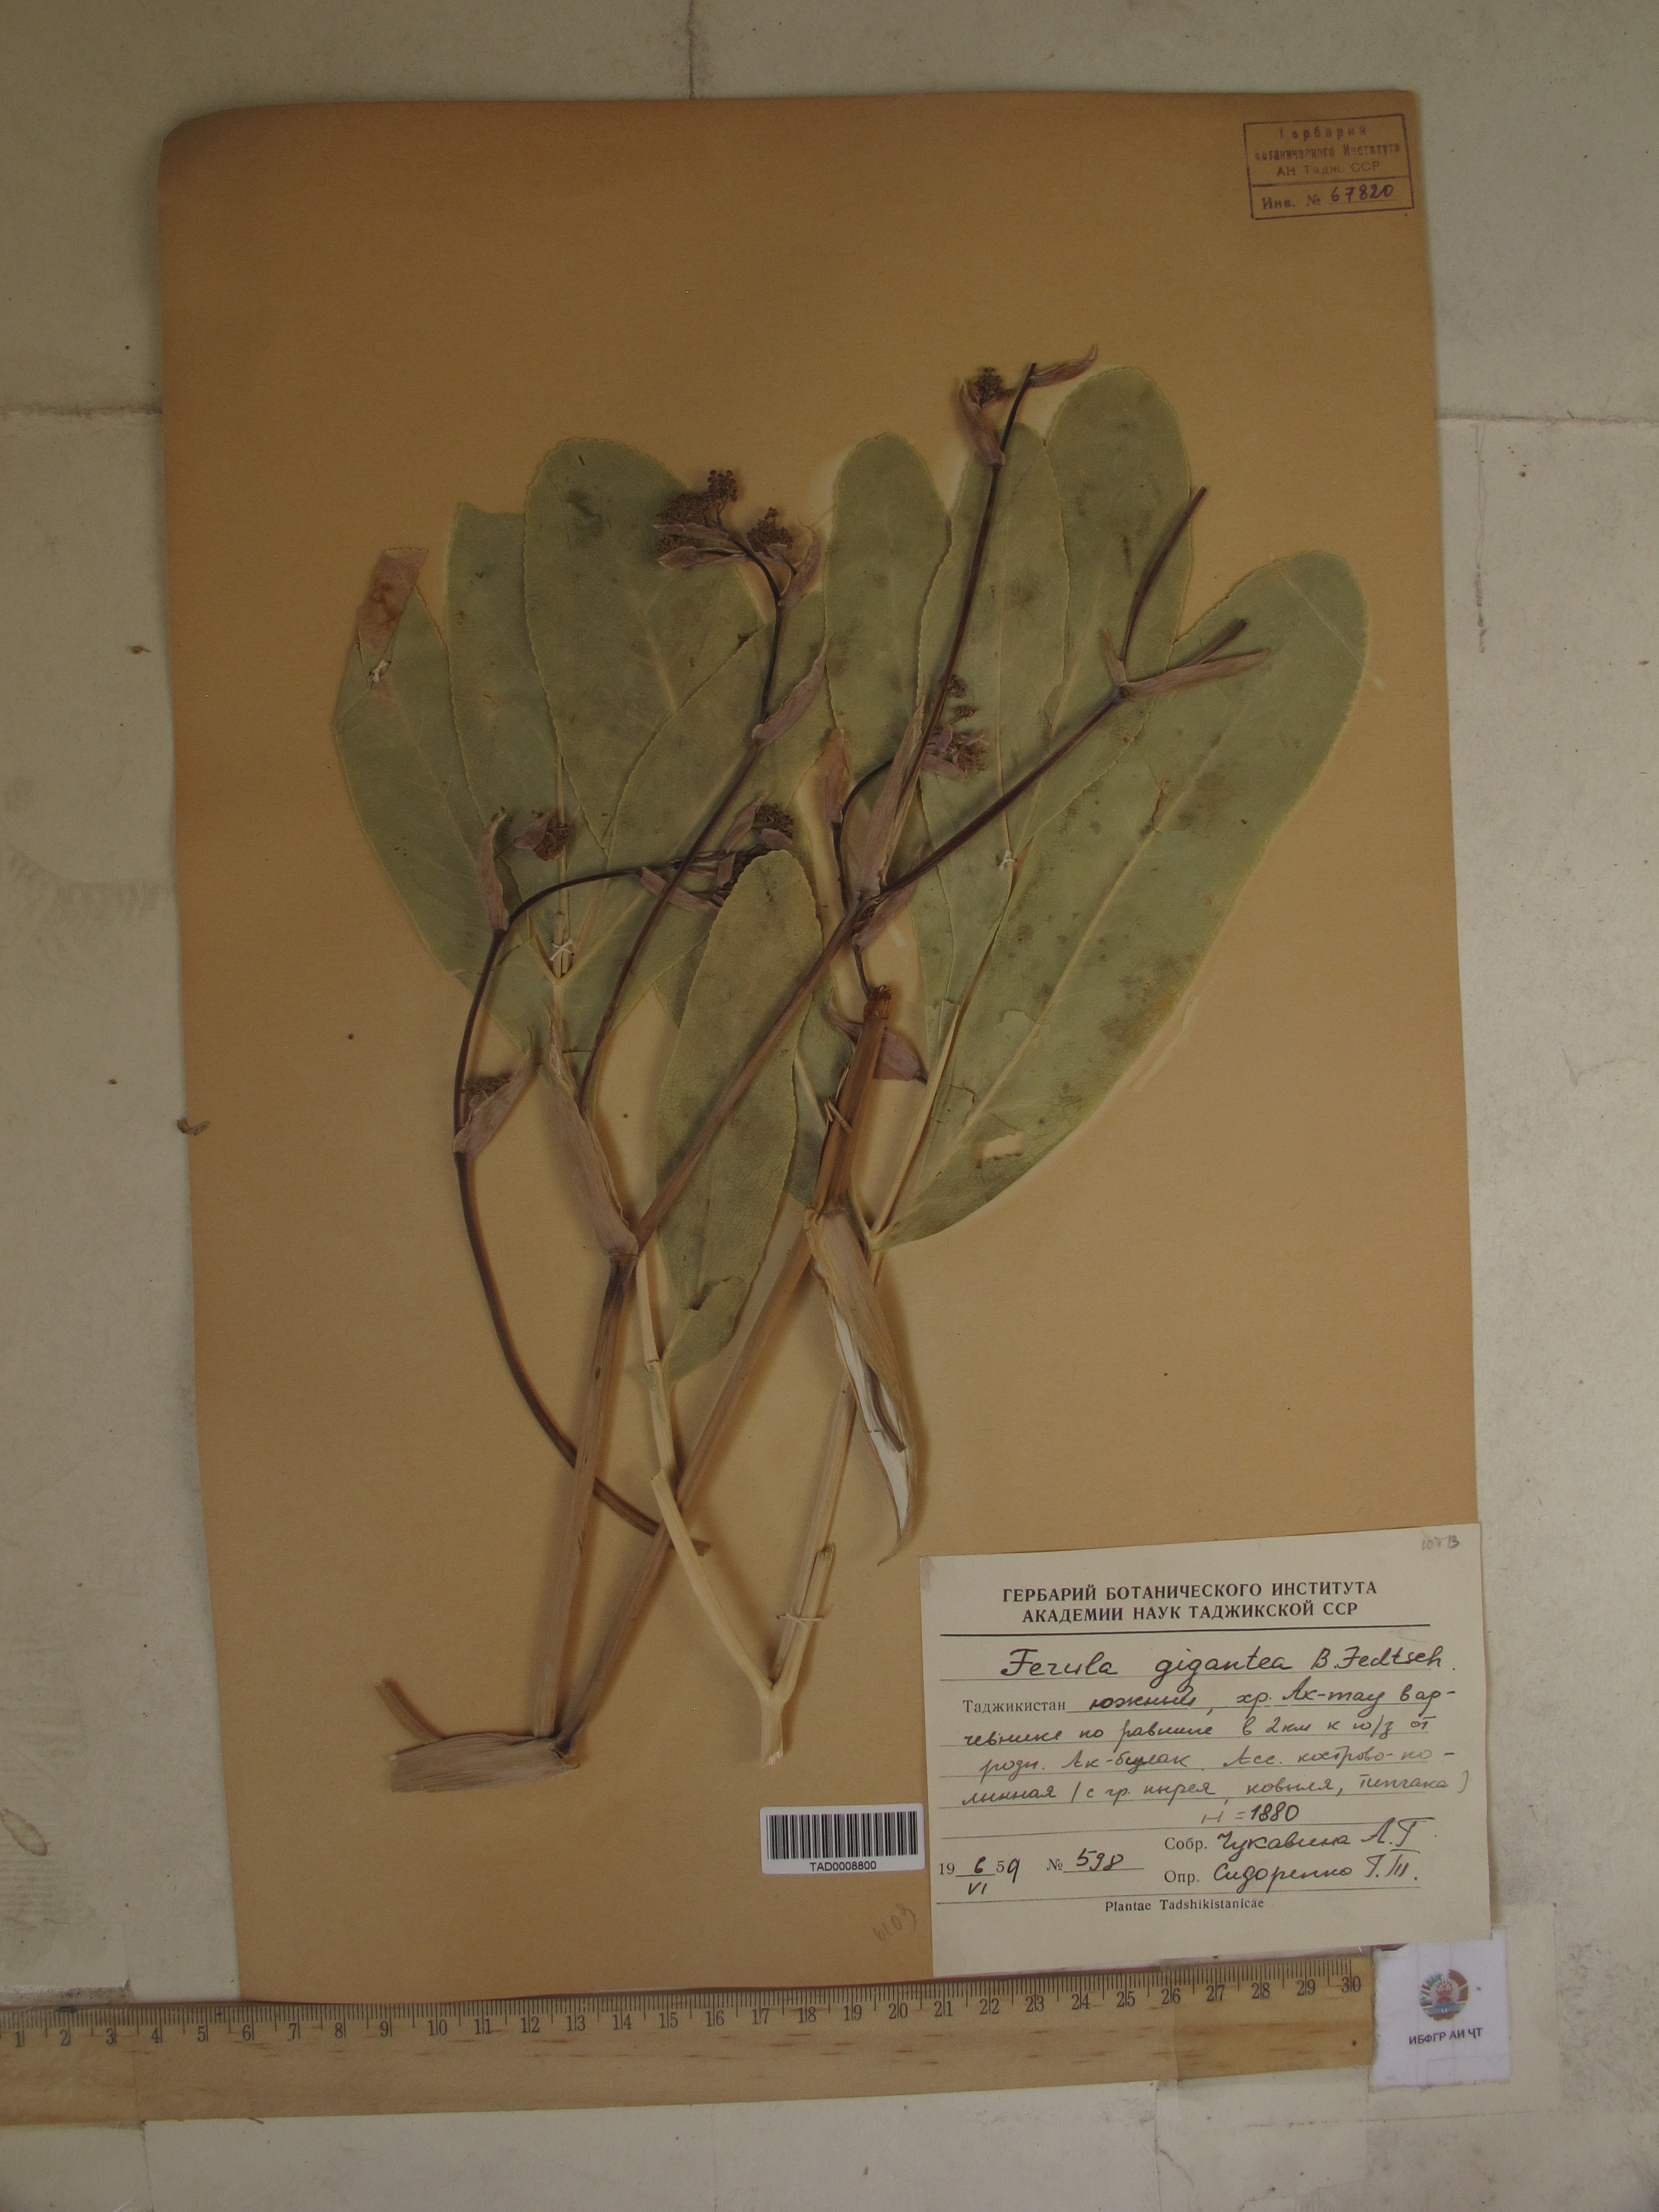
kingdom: Plantae
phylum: Tracheophyta
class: Magnoliopsida
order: Apiales
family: Apiaceae
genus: Ferula
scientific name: Ferula gigantea
